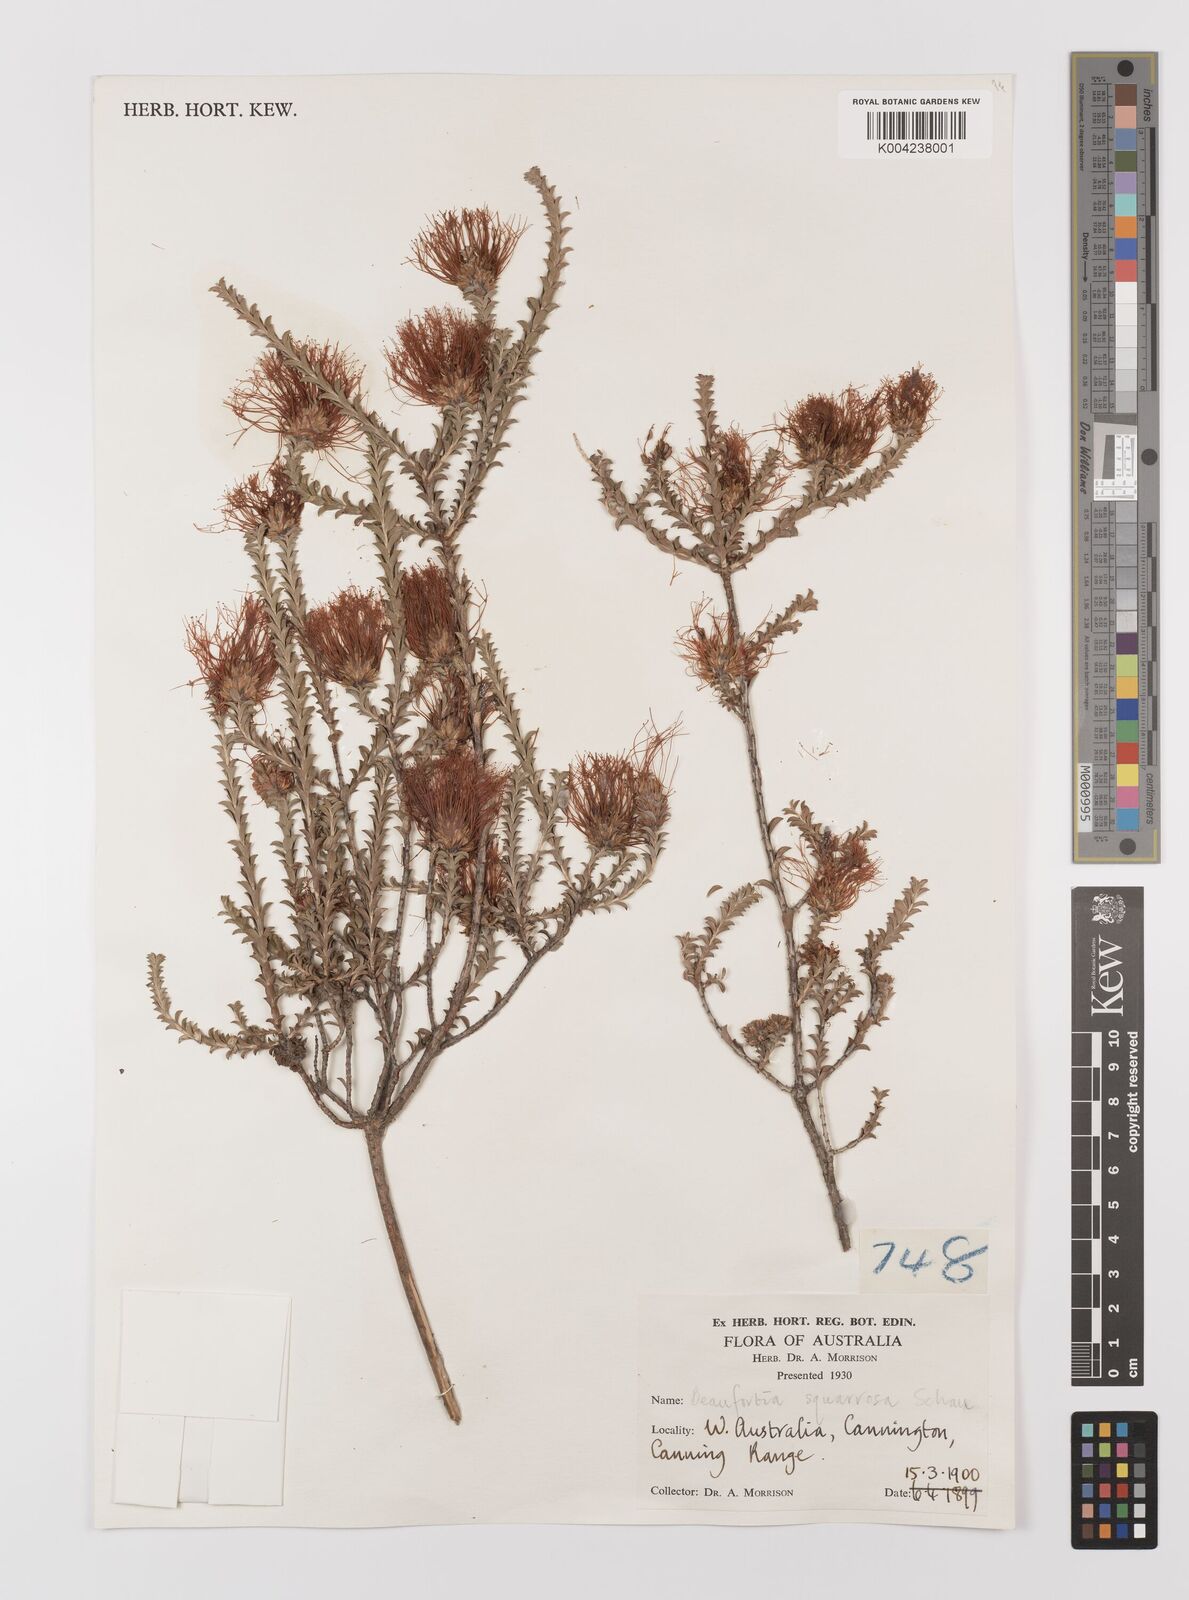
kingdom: Plantae
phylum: Tracheophyta
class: Magnoliopsida
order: Myrtales
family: Myrtaceae
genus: Melaleuca
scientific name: Melaleuca pulcherrima
